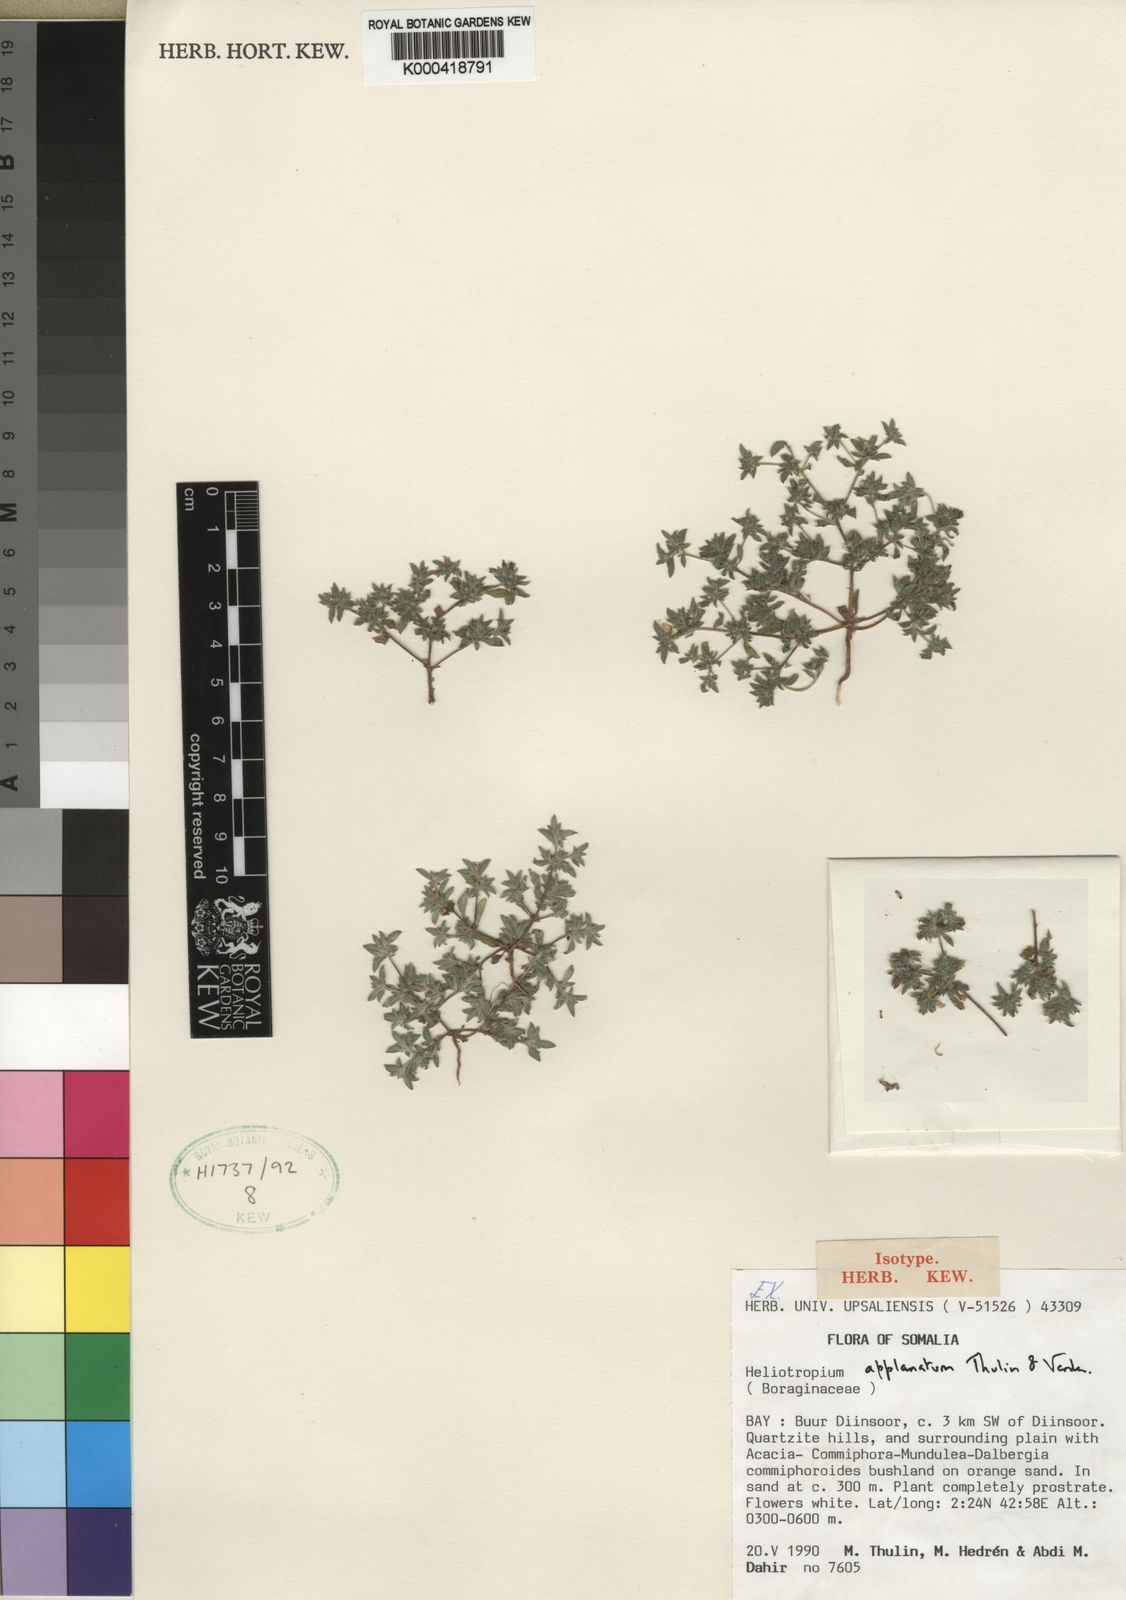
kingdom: Plantae
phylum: Tracheophyta
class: Magnoliopsida
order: Boraginales
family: Heliotropiaceae
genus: Euploca
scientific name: Euploca applanata
